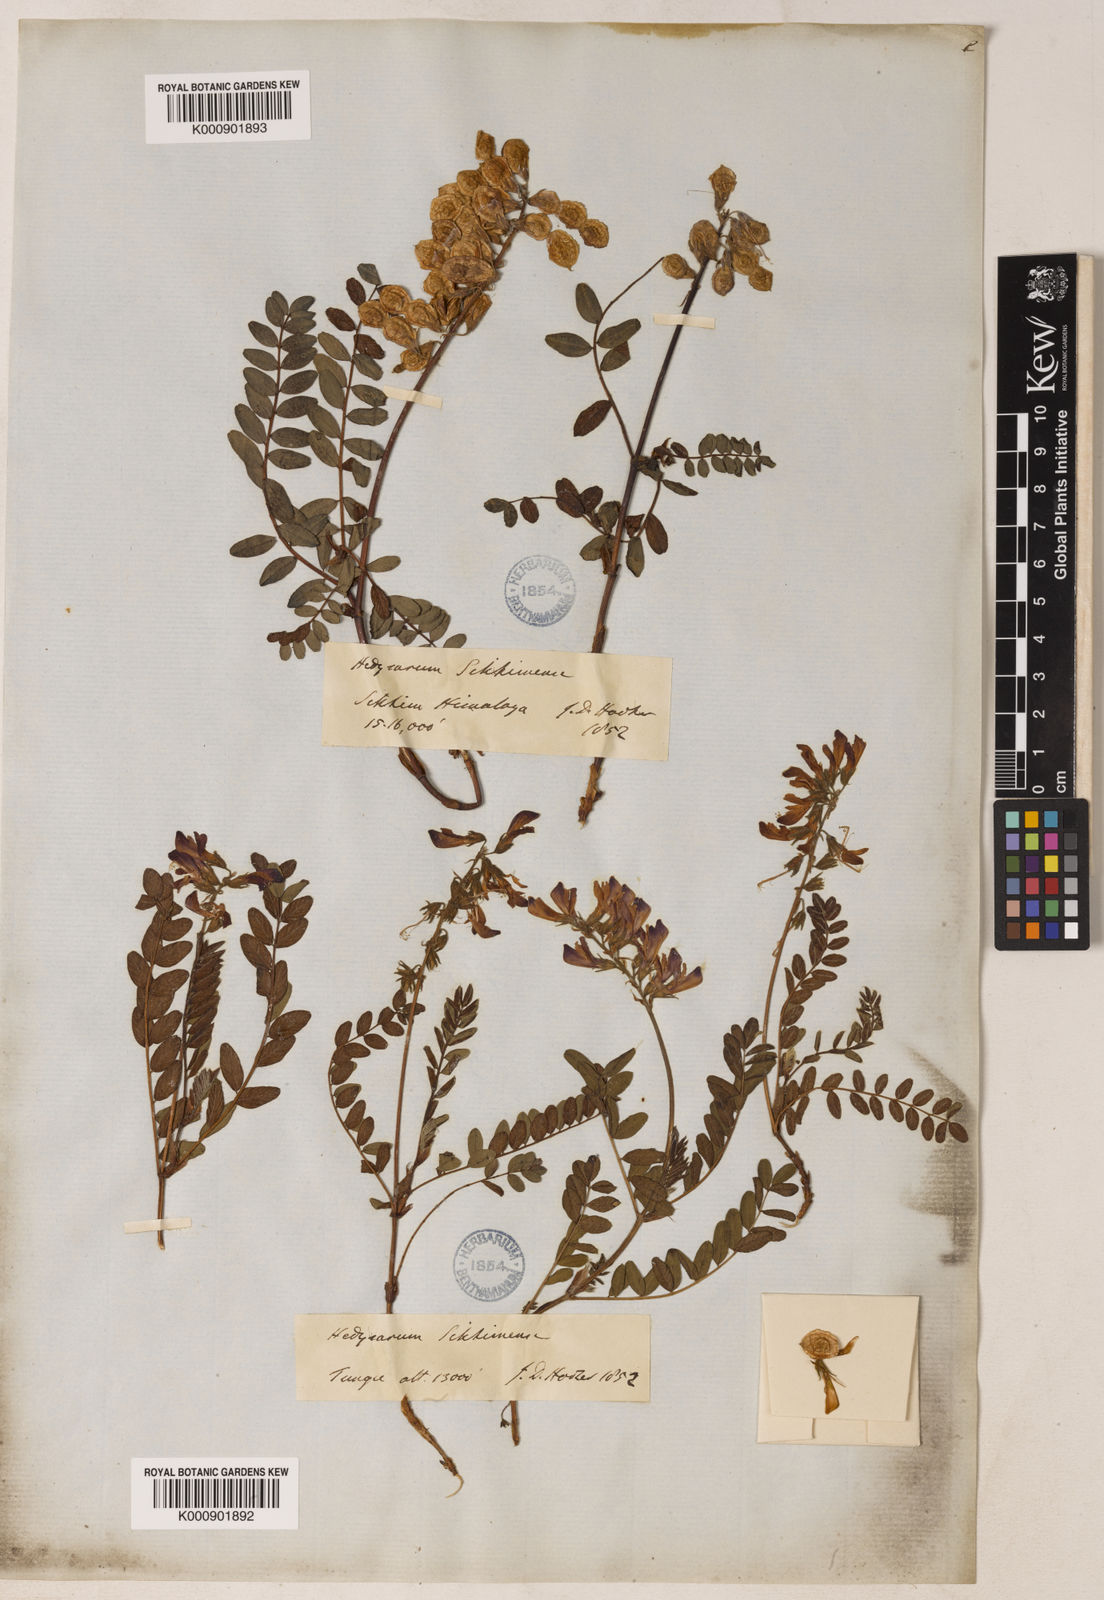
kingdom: Plantae
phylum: Tracheophyta
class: Magnoliopsida
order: Fabales
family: Fabaceae
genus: Hedysarum
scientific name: Hedysarum sikkimense
